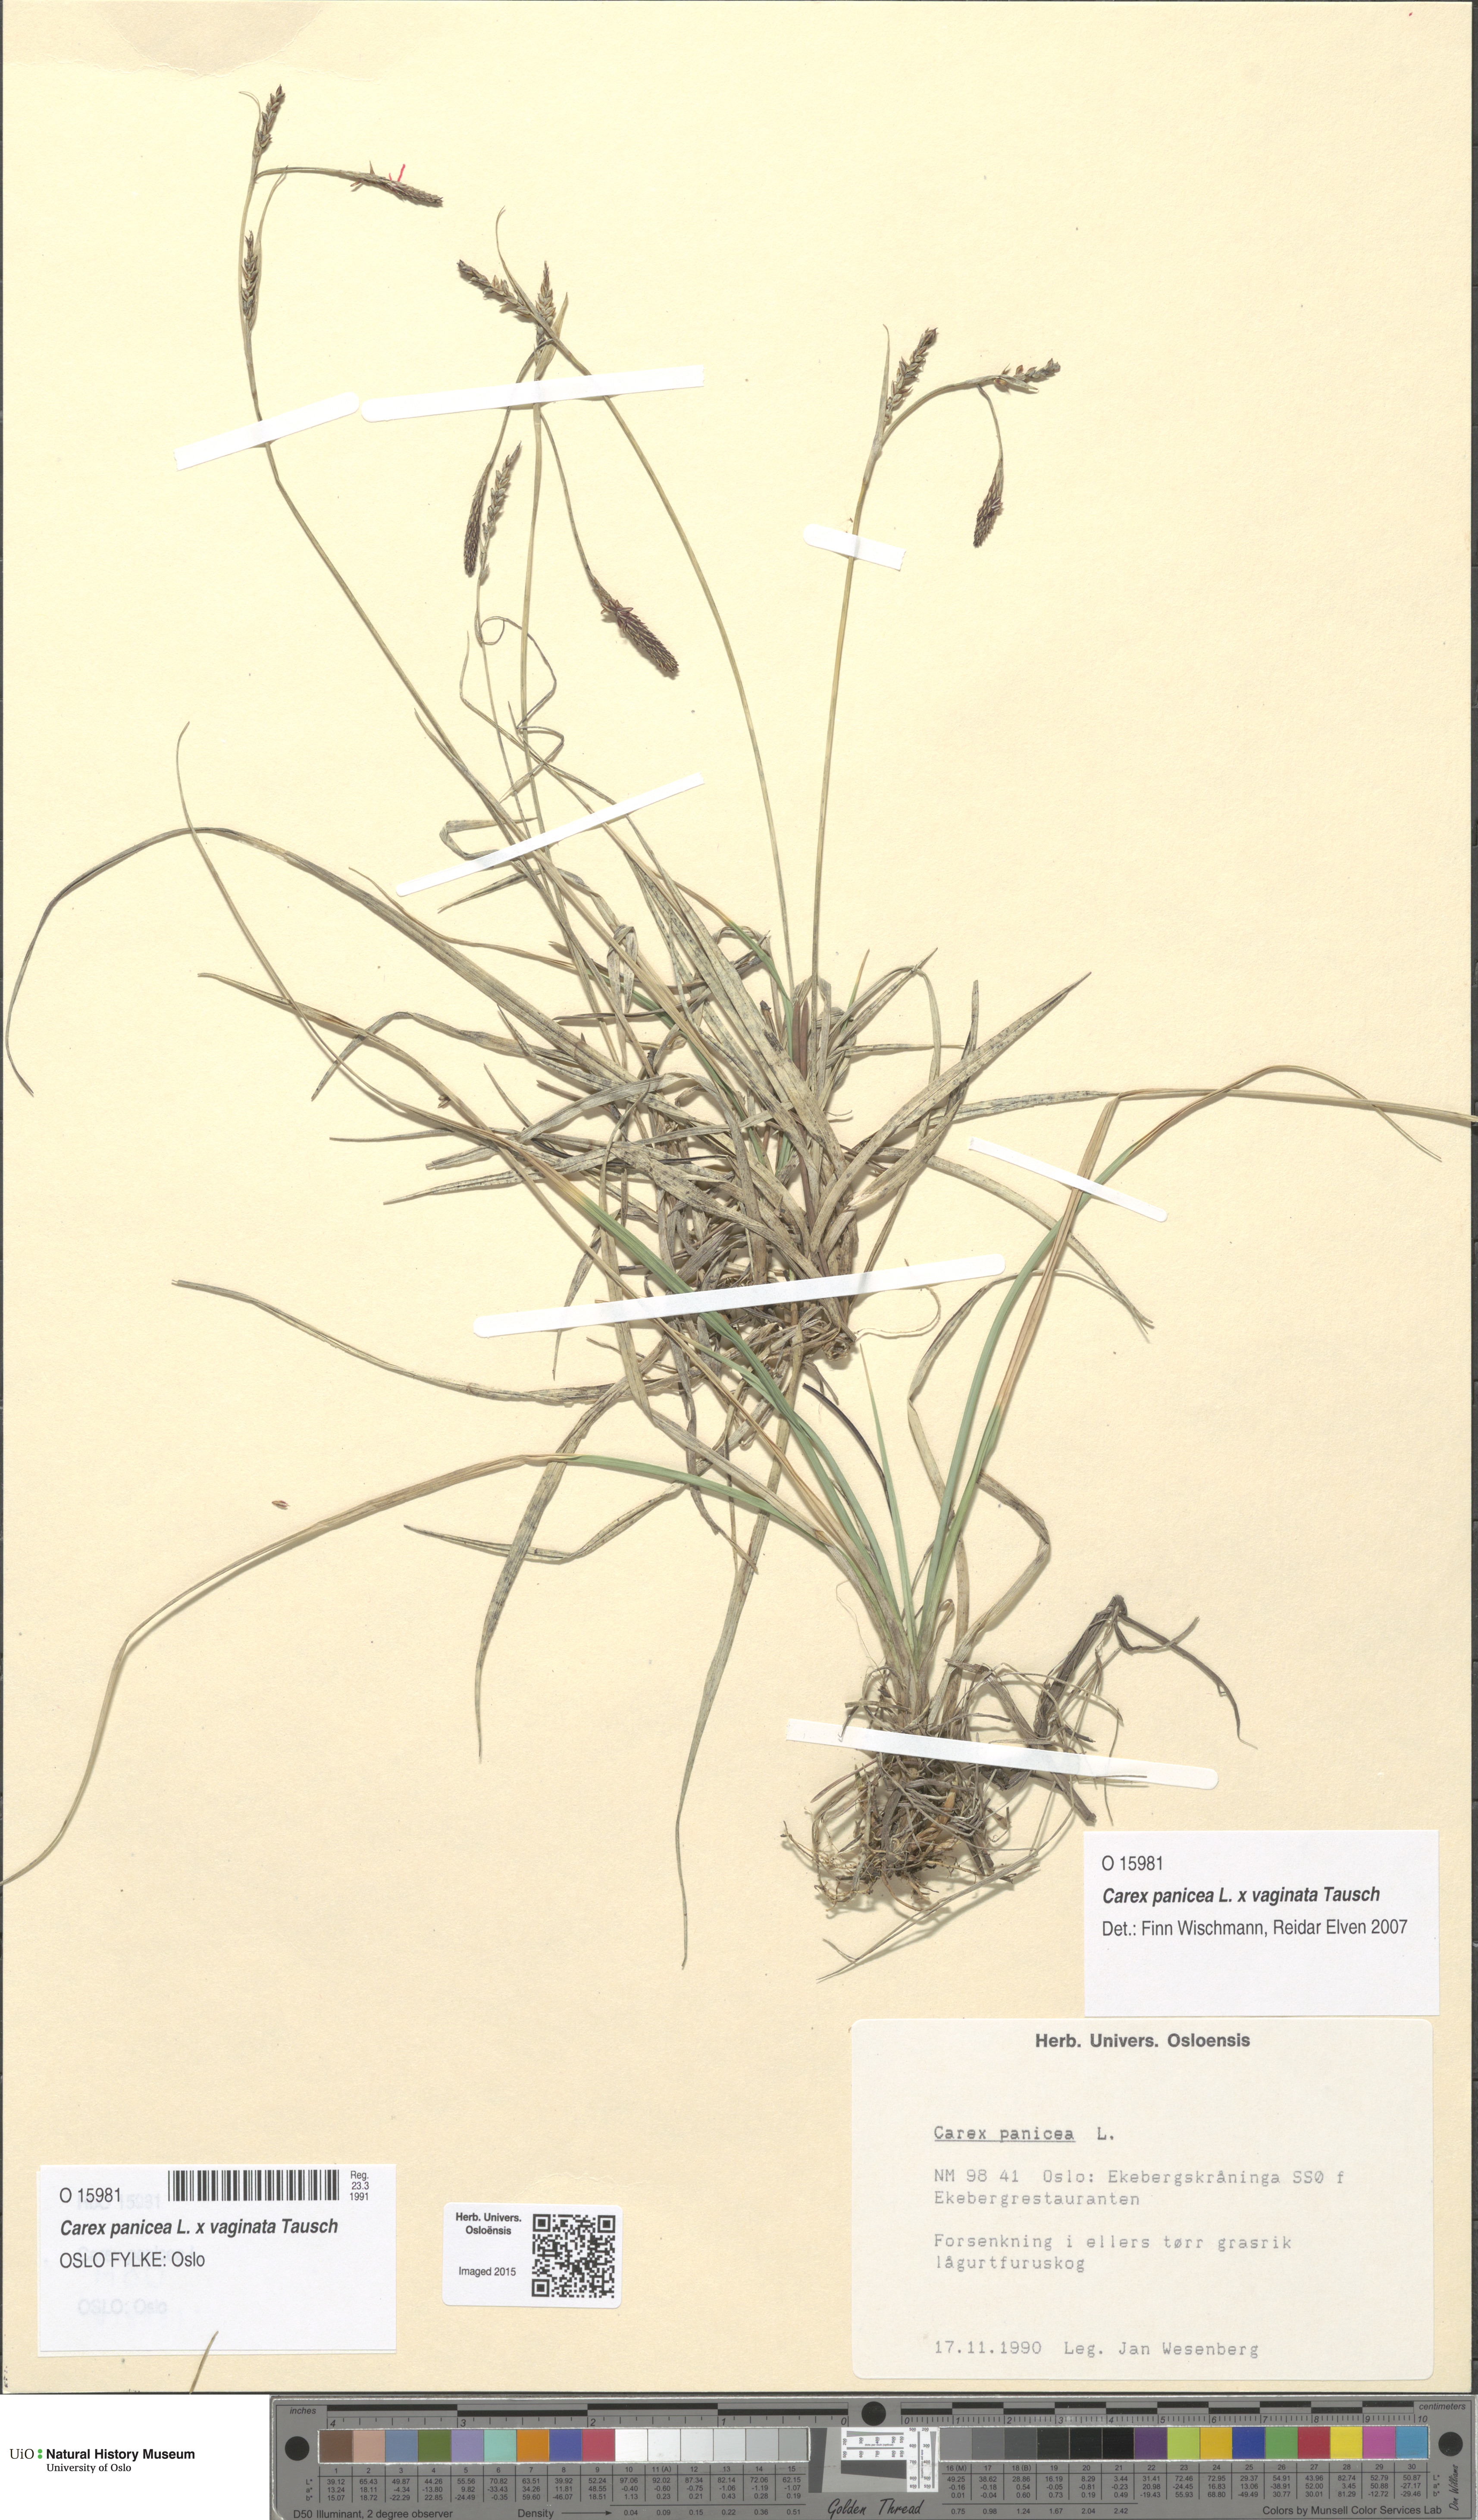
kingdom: Plantae
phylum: Tracheophyta
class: Liliopsida
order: Poales
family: Cyperaceae
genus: Carex
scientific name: Carex
